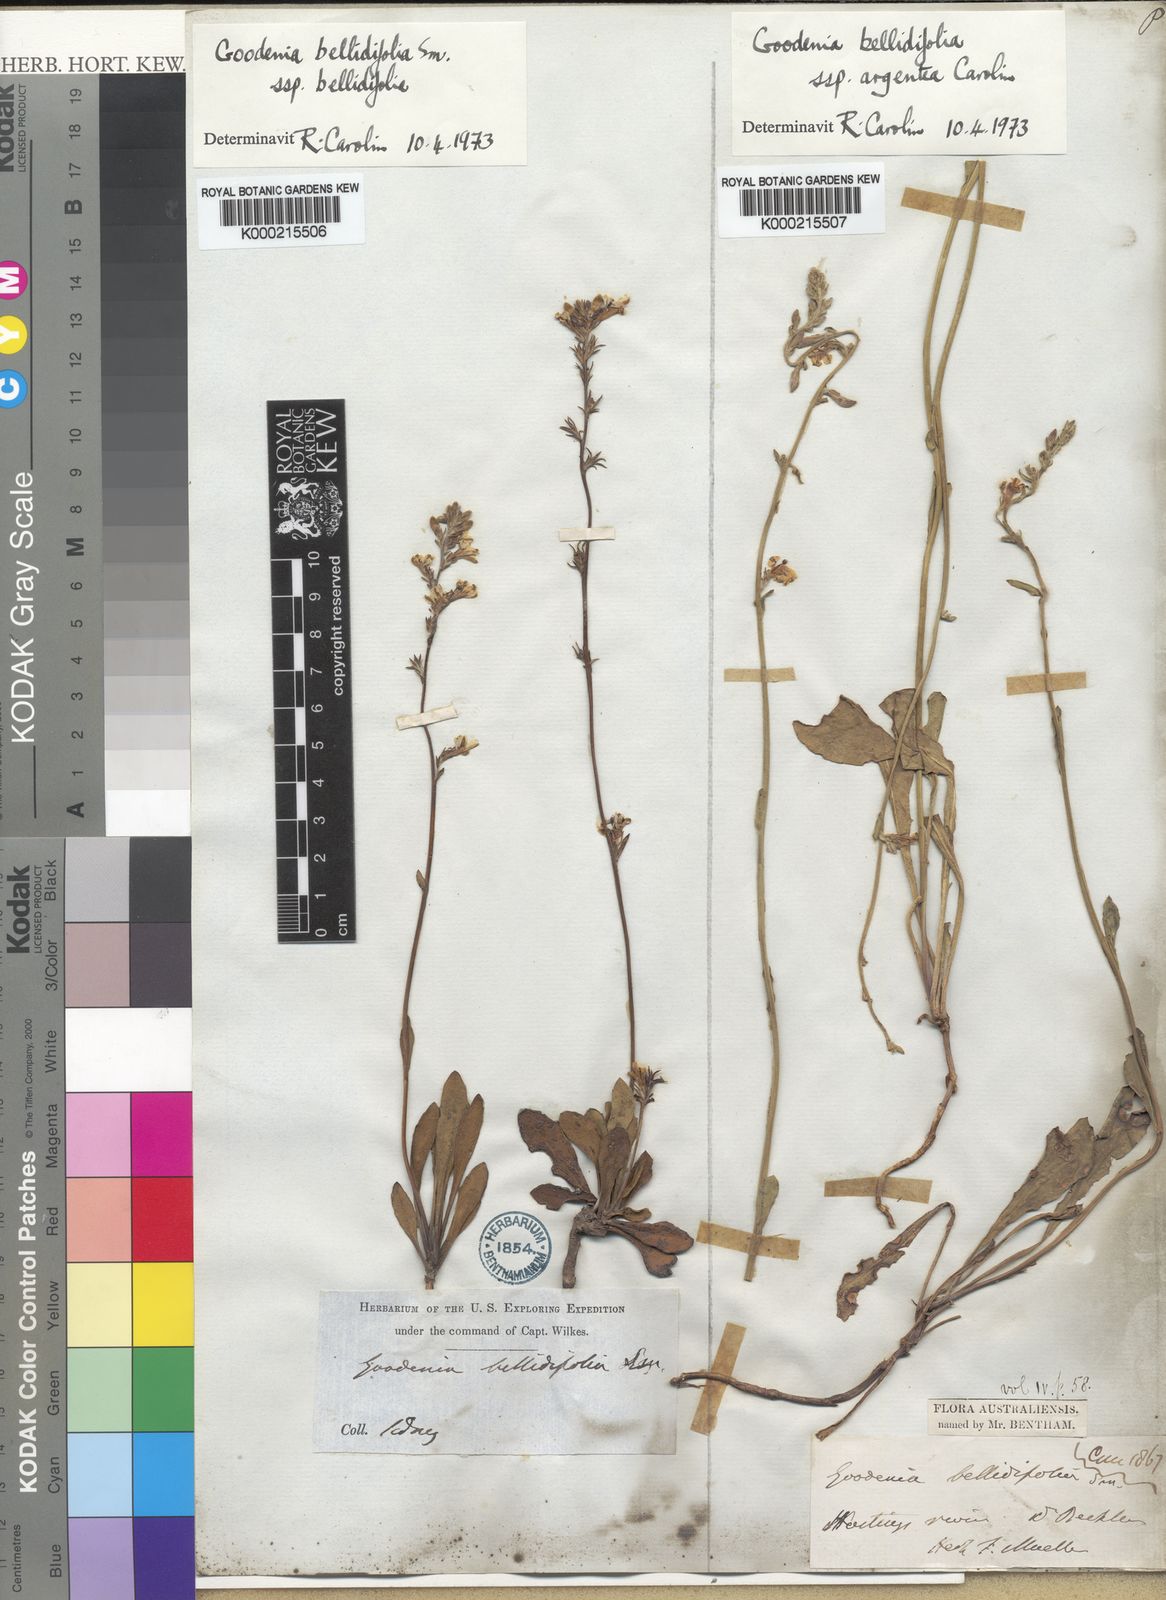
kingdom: Plantae
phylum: Tracheophyta
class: Magnoliopsida
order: Asterales
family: Goodeniaceae
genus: Goodenia
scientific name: Goodenia bellidifolia
